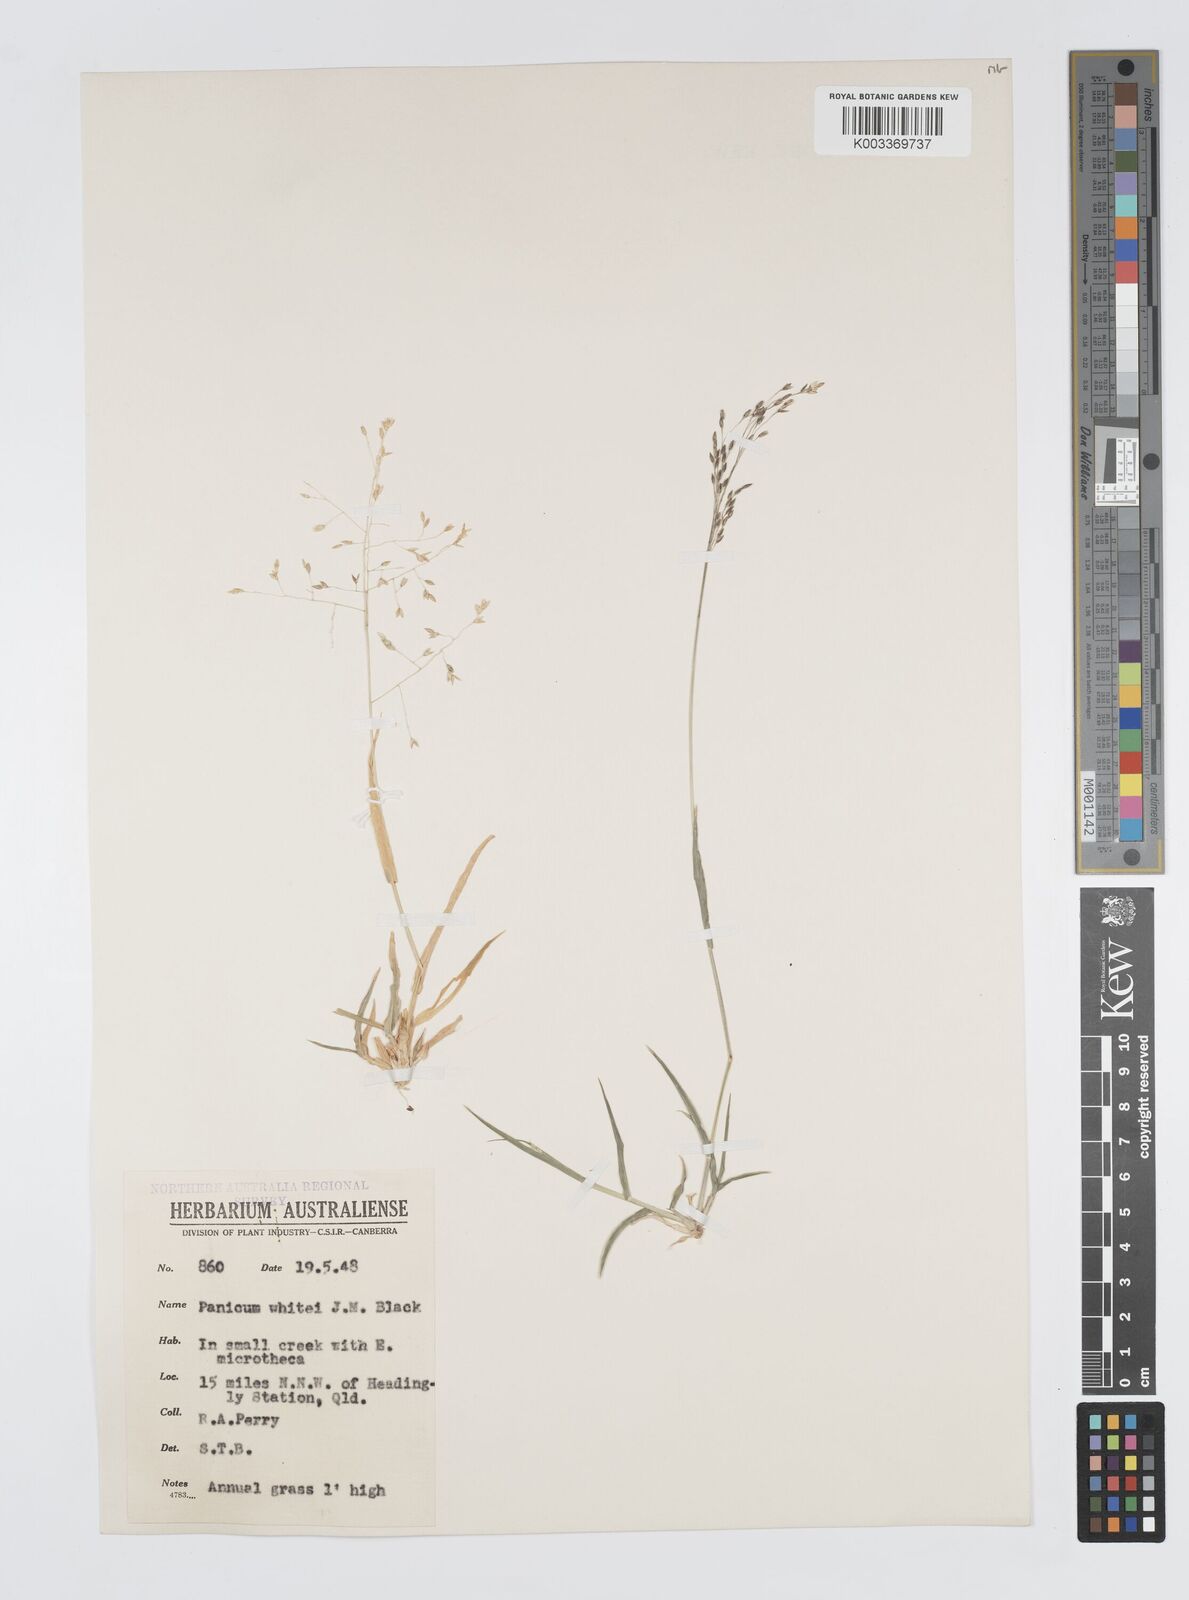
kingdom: Plantae
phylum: Tracheophyta
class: Liliopsida
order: Poales
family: Poaceae
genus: Panicum
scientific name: Panicum laevinode
